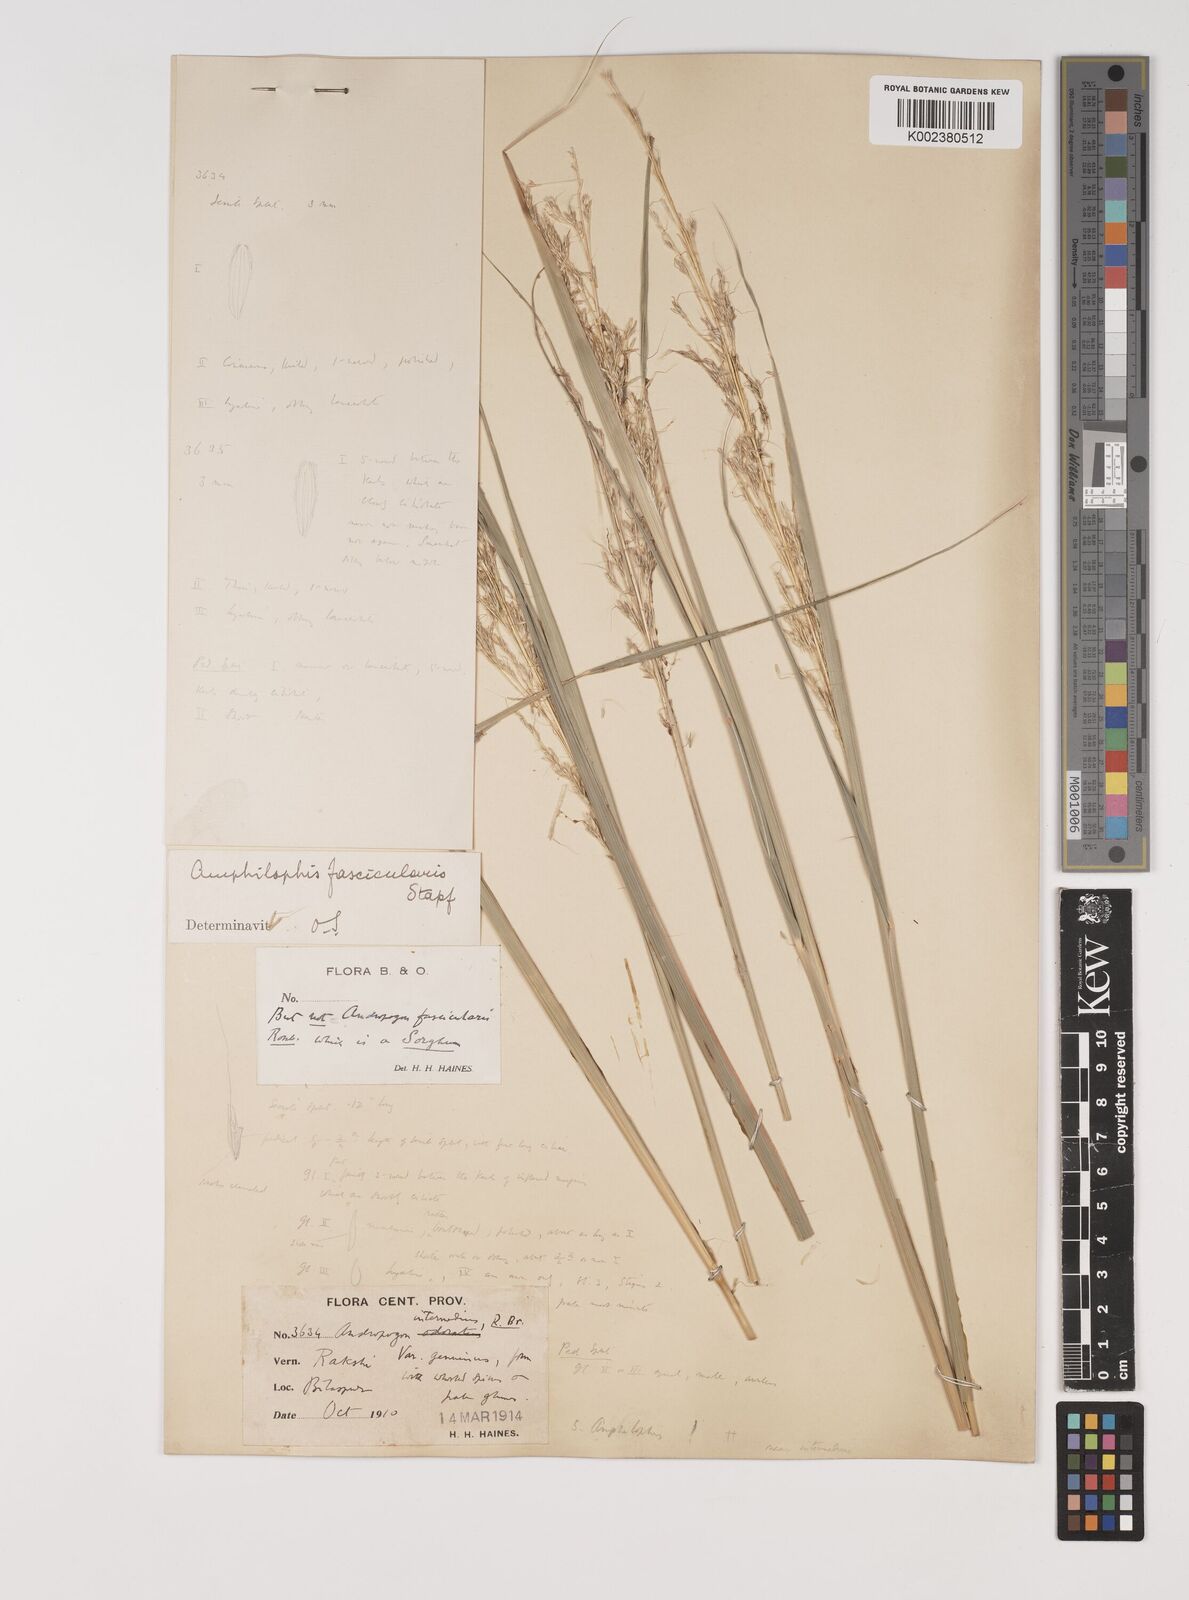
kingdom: Plantae
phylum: Tracheophyta
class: Liliopsida
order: Poales
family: Poaceae
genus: Bothriochloa
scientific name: Bothriochloa bladhii
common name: Caucasian bluestem
